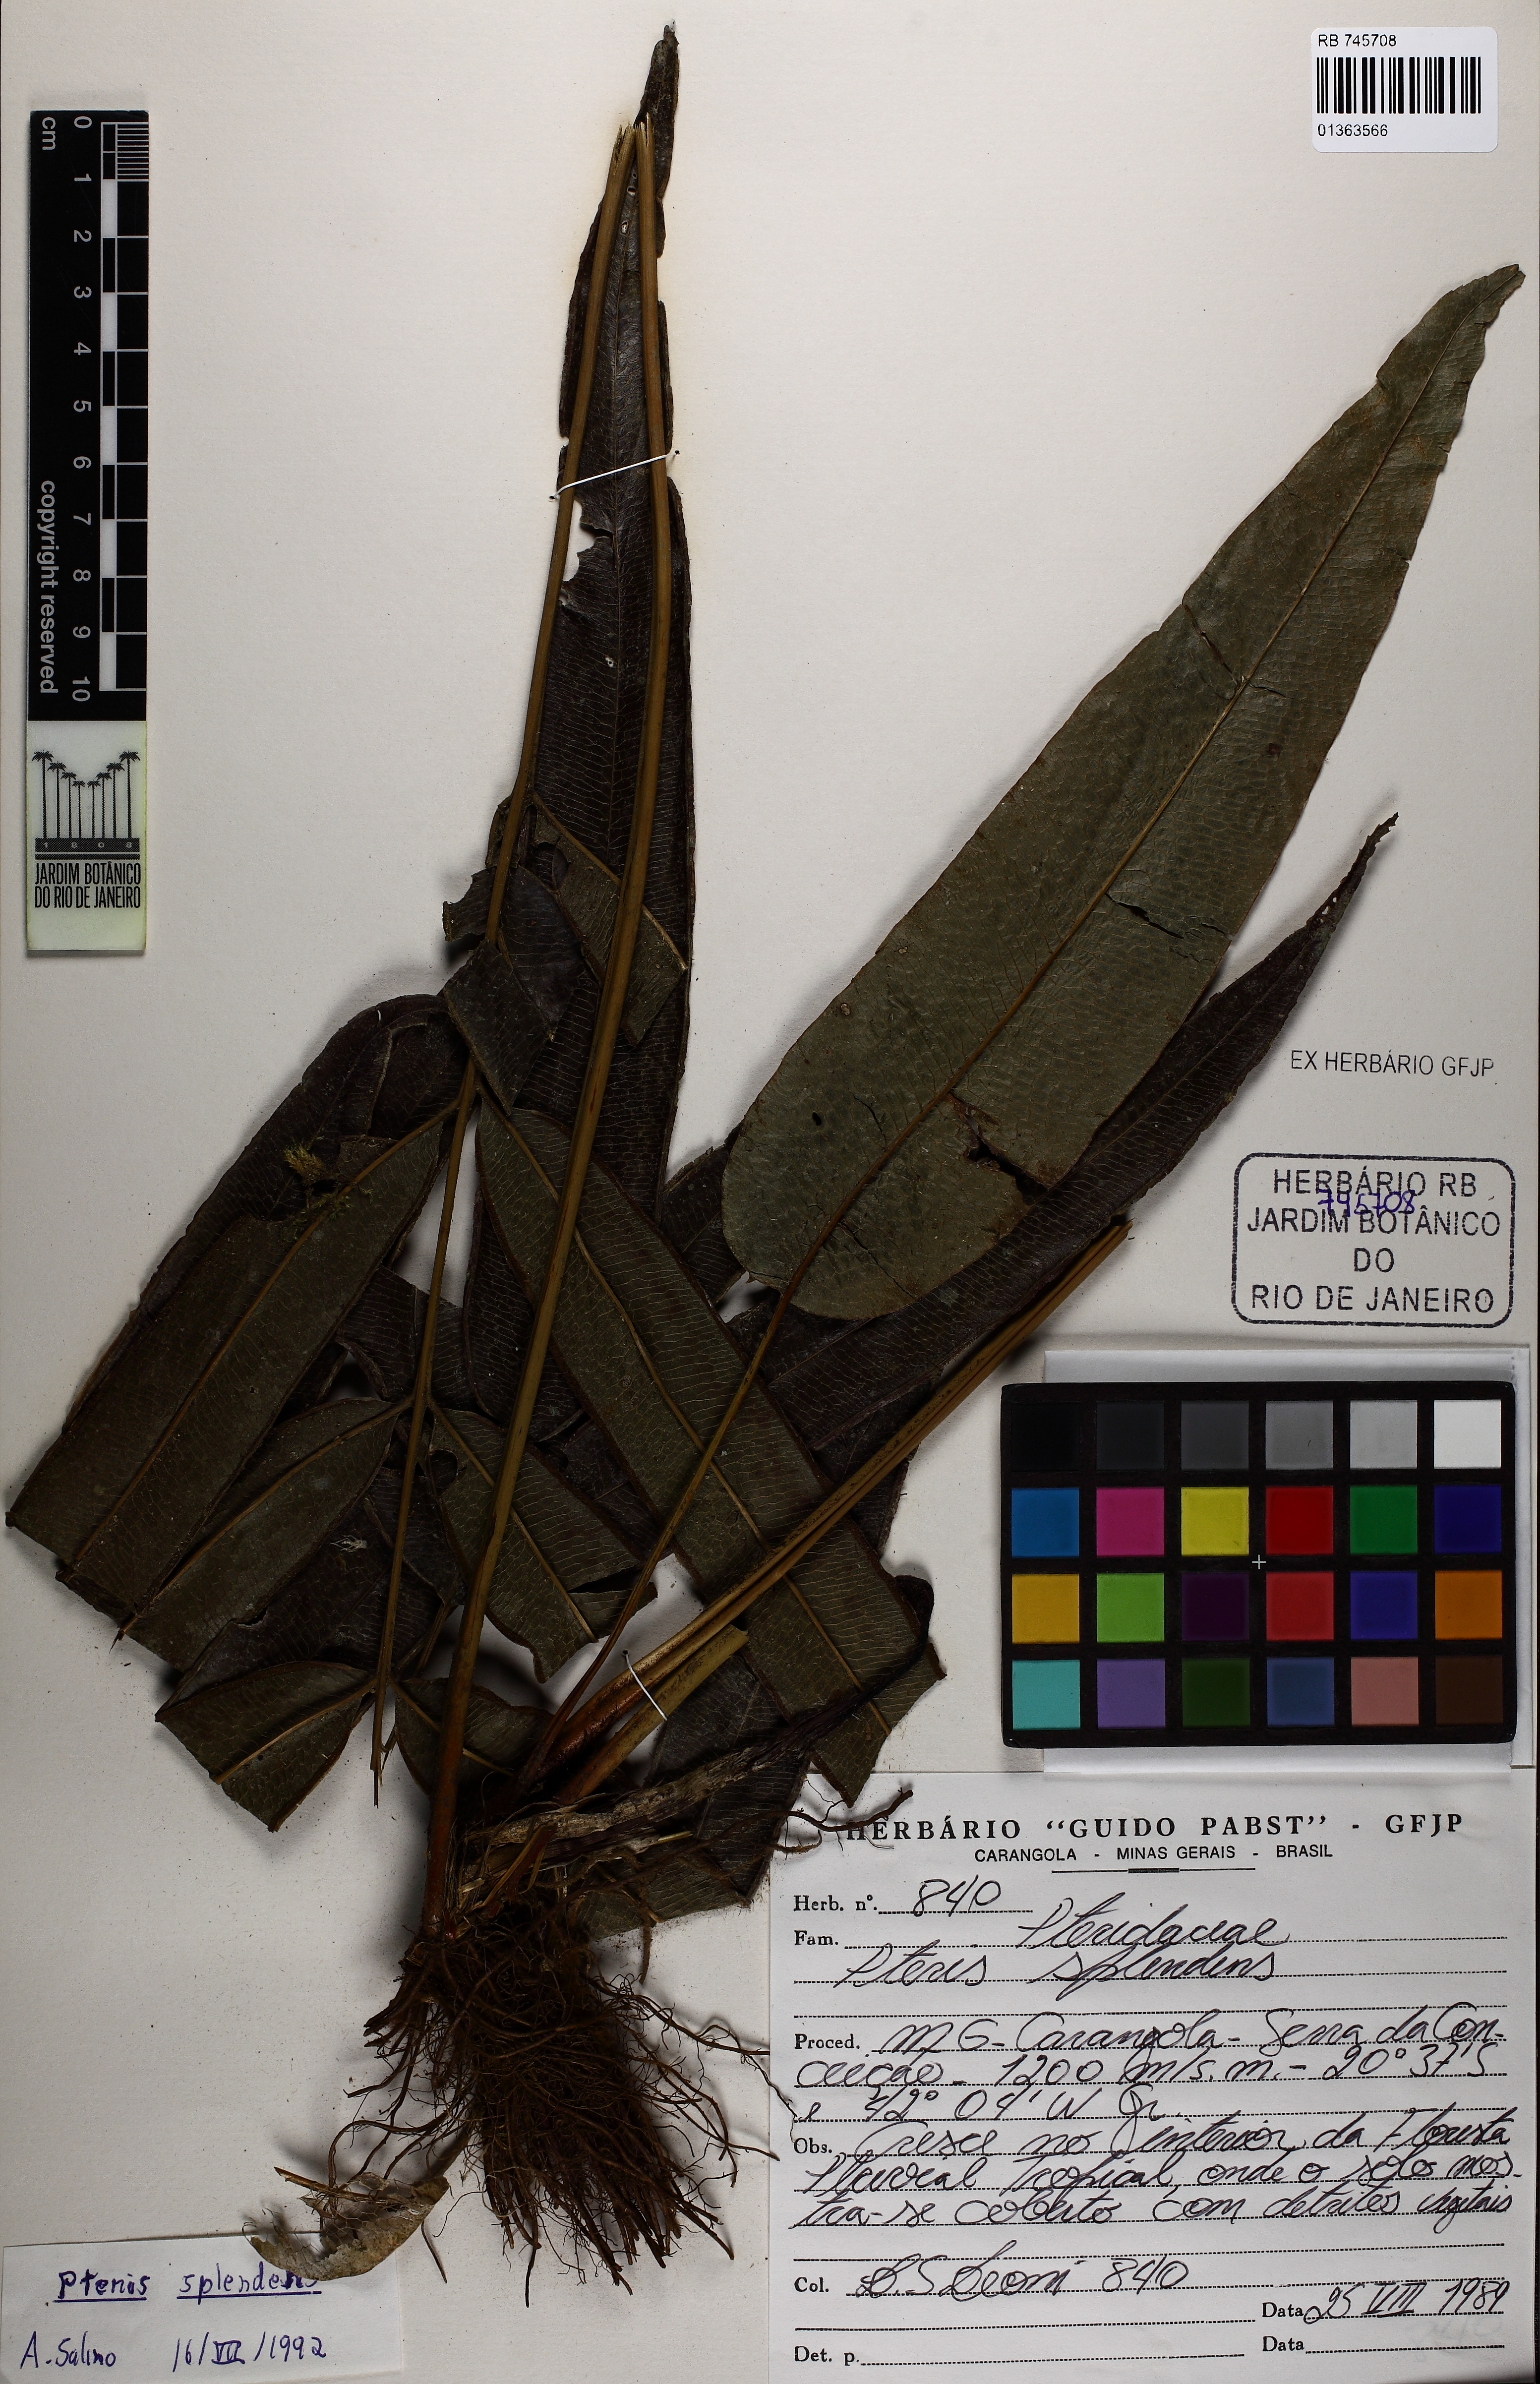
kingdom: Plantae
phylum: Tracheophyta
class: Polypodiopsida
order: Polypodiales
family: Pteridaceae
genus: Pteris
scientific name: Pteris splendens
